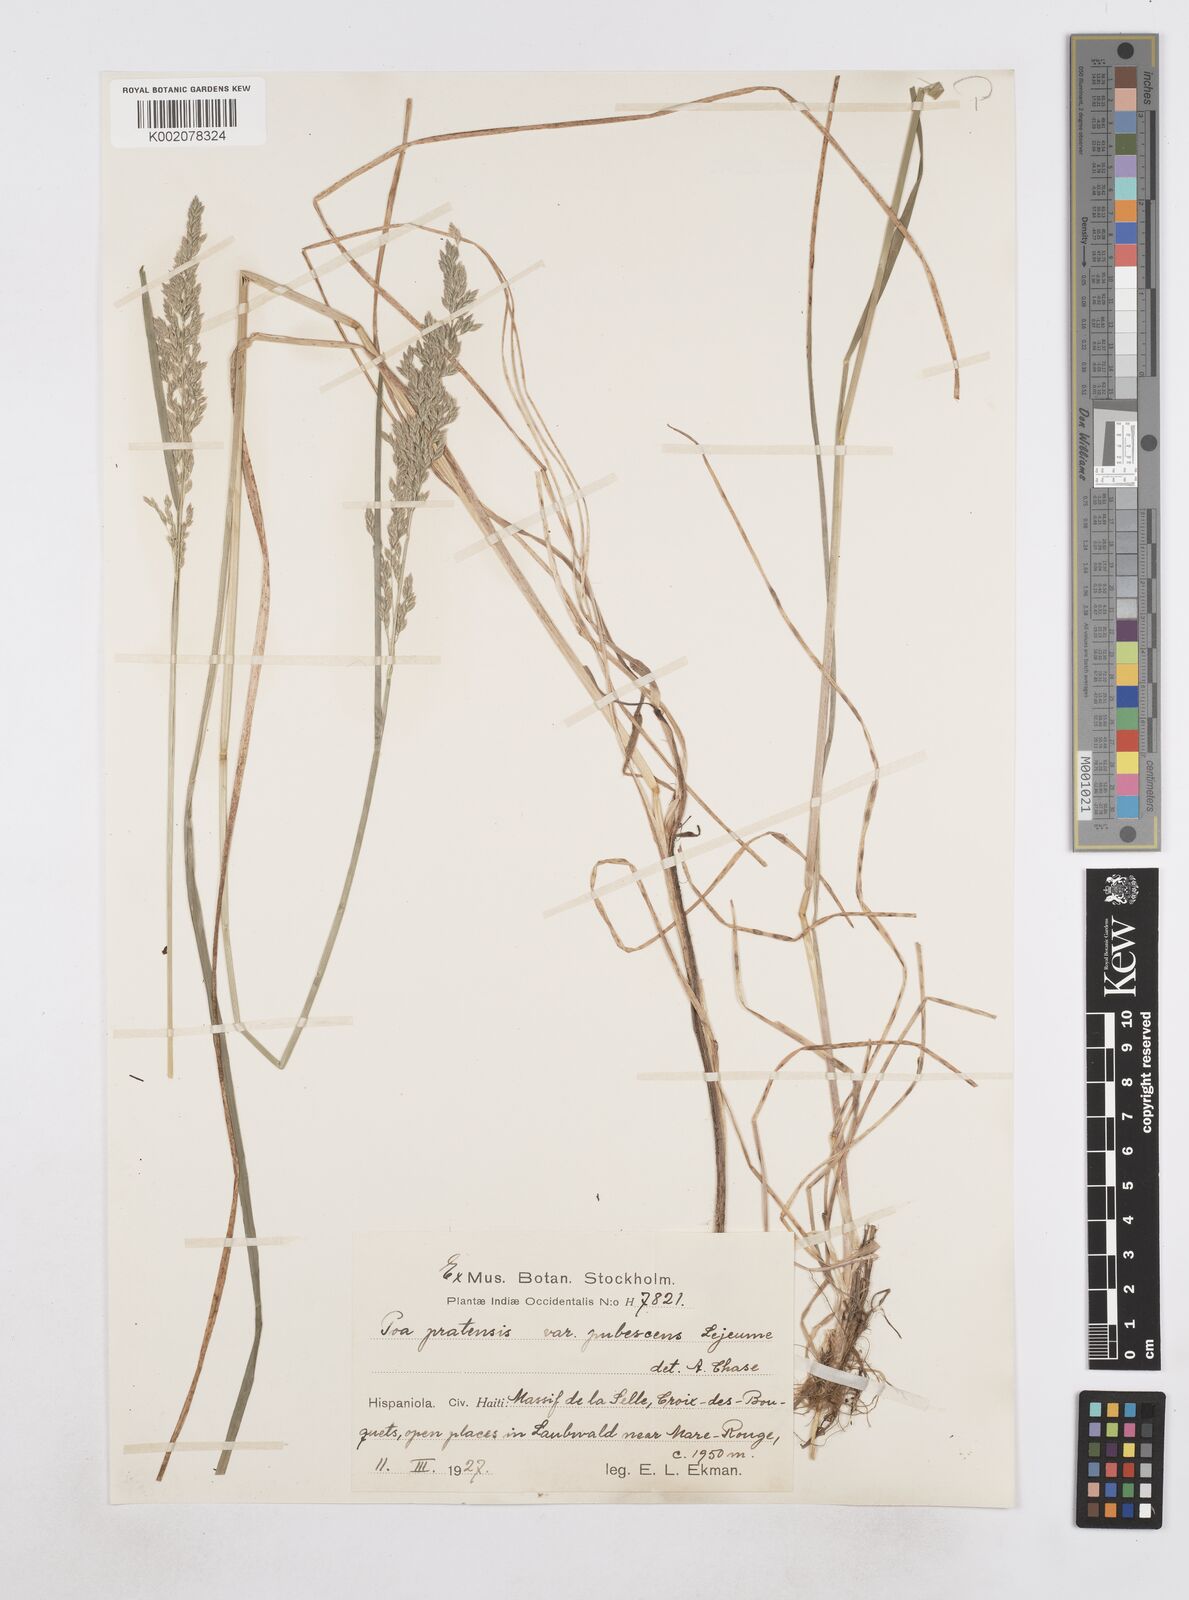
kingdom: Plantae
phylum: Tracheophyta
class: Liliopsida
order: Poales
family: Poaceae
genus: Poa
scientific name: Poa pratensis
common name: Kentucky bluegrass
